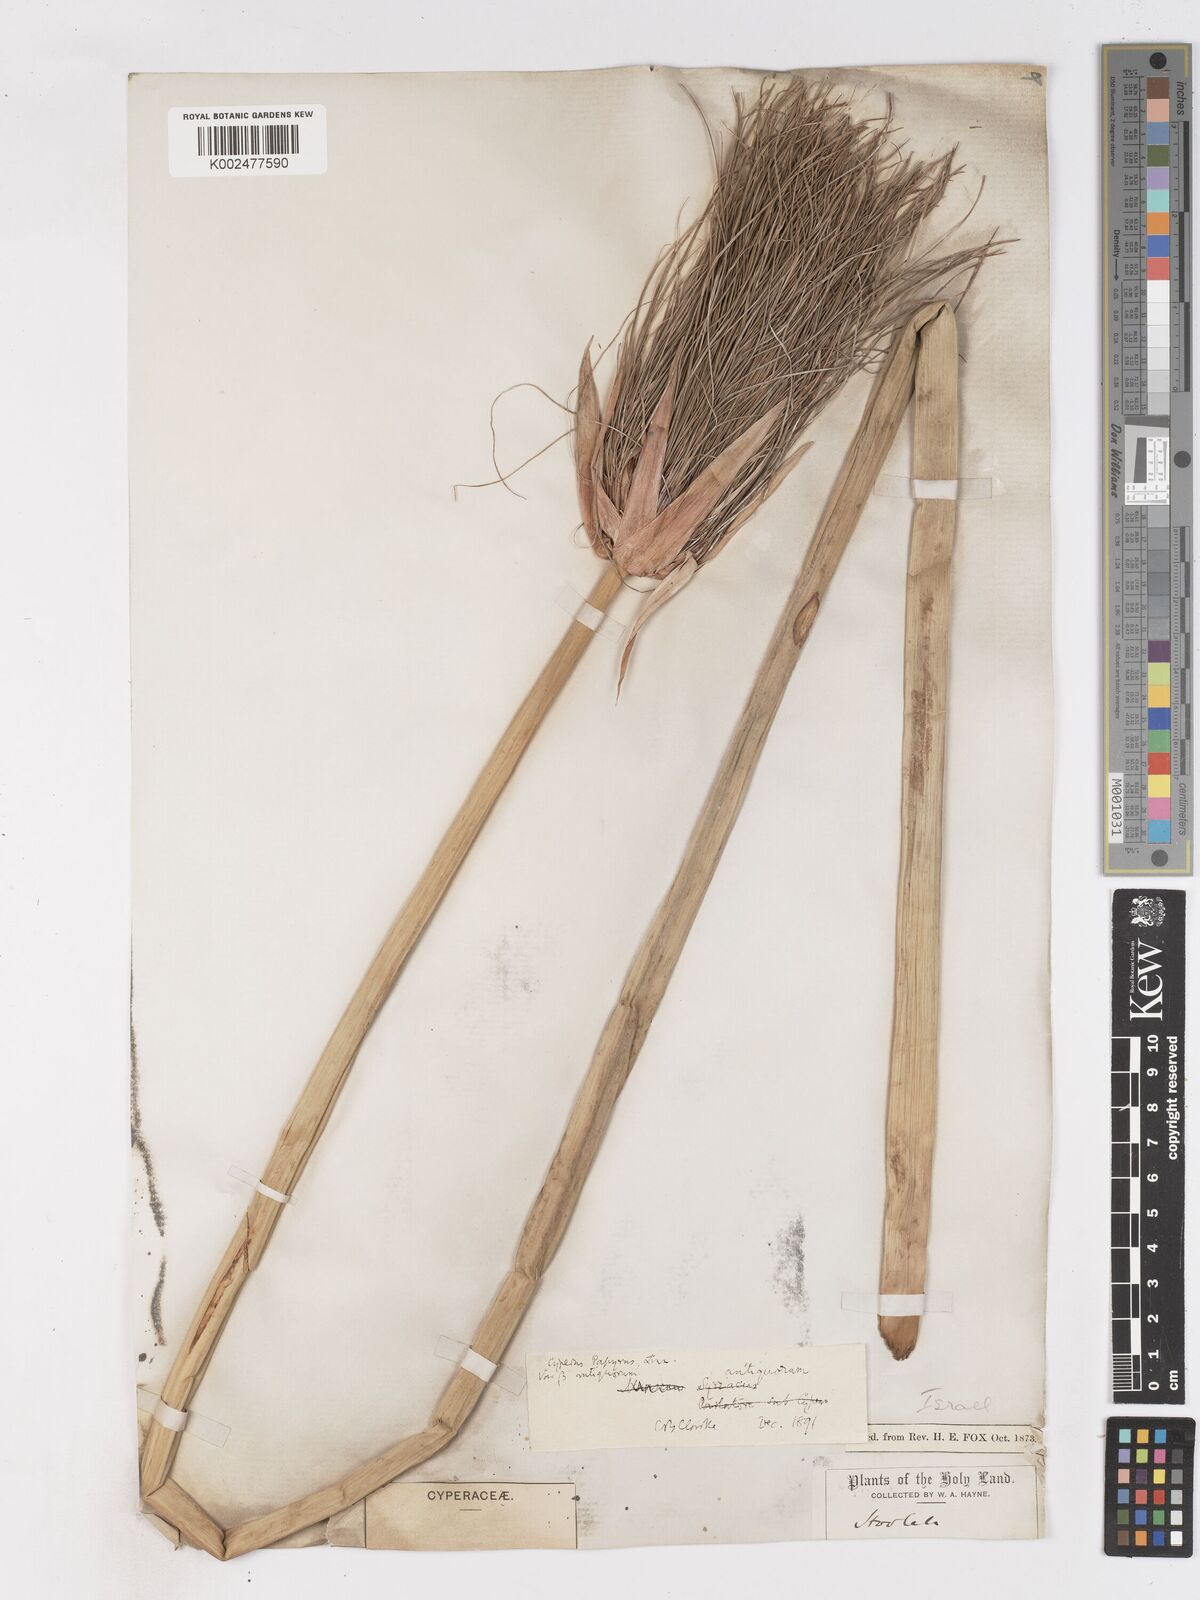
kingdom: Plantae
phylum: Tracheophyta
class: Liliopsida
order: Poales
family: Cyperaceae
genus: Cyperus
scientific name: Cyperus papyrus
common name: Papyrus
